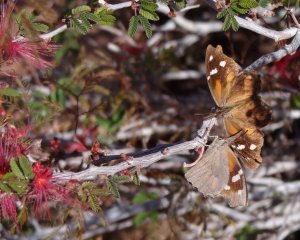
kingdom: Animalia
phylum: Arthropoda
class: Insecta
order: Lepidoptera
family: Nymphalidae
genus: Libytheana
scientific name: Libytheana carinenta
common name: American Snout
